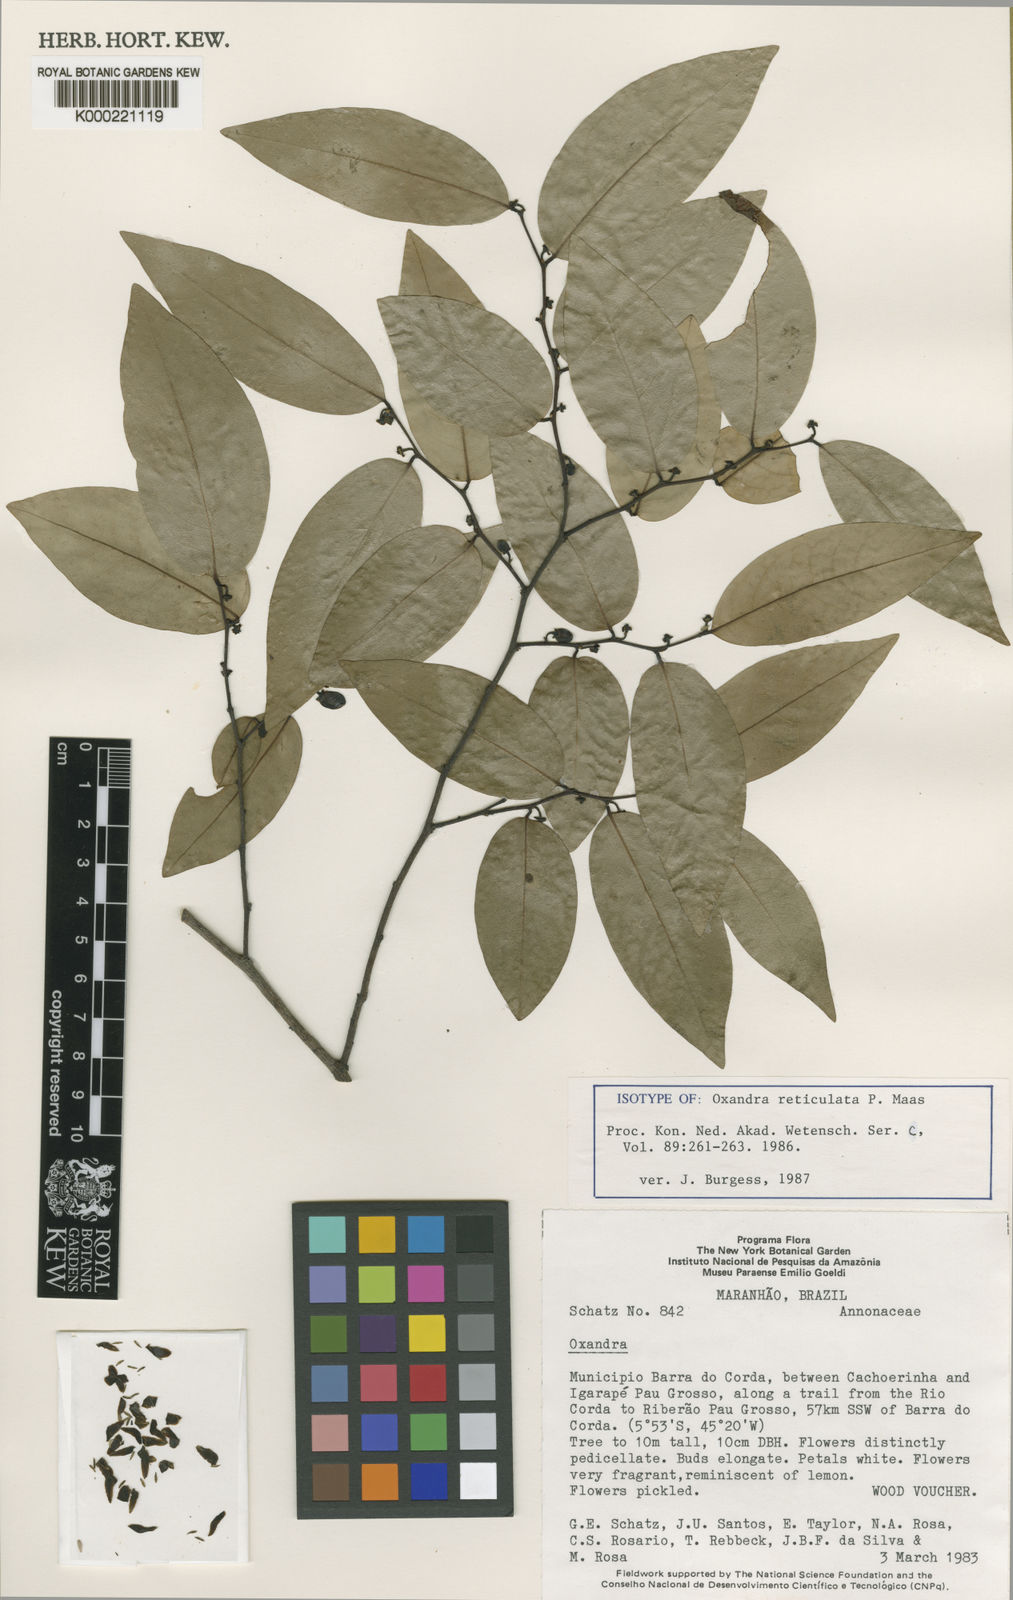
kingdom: Plantae
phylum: Tracheophyta
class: Magnoliopsida
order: Magnoliales
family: Annonaceae
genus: Oxandra
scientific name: Oxandra reticulata
